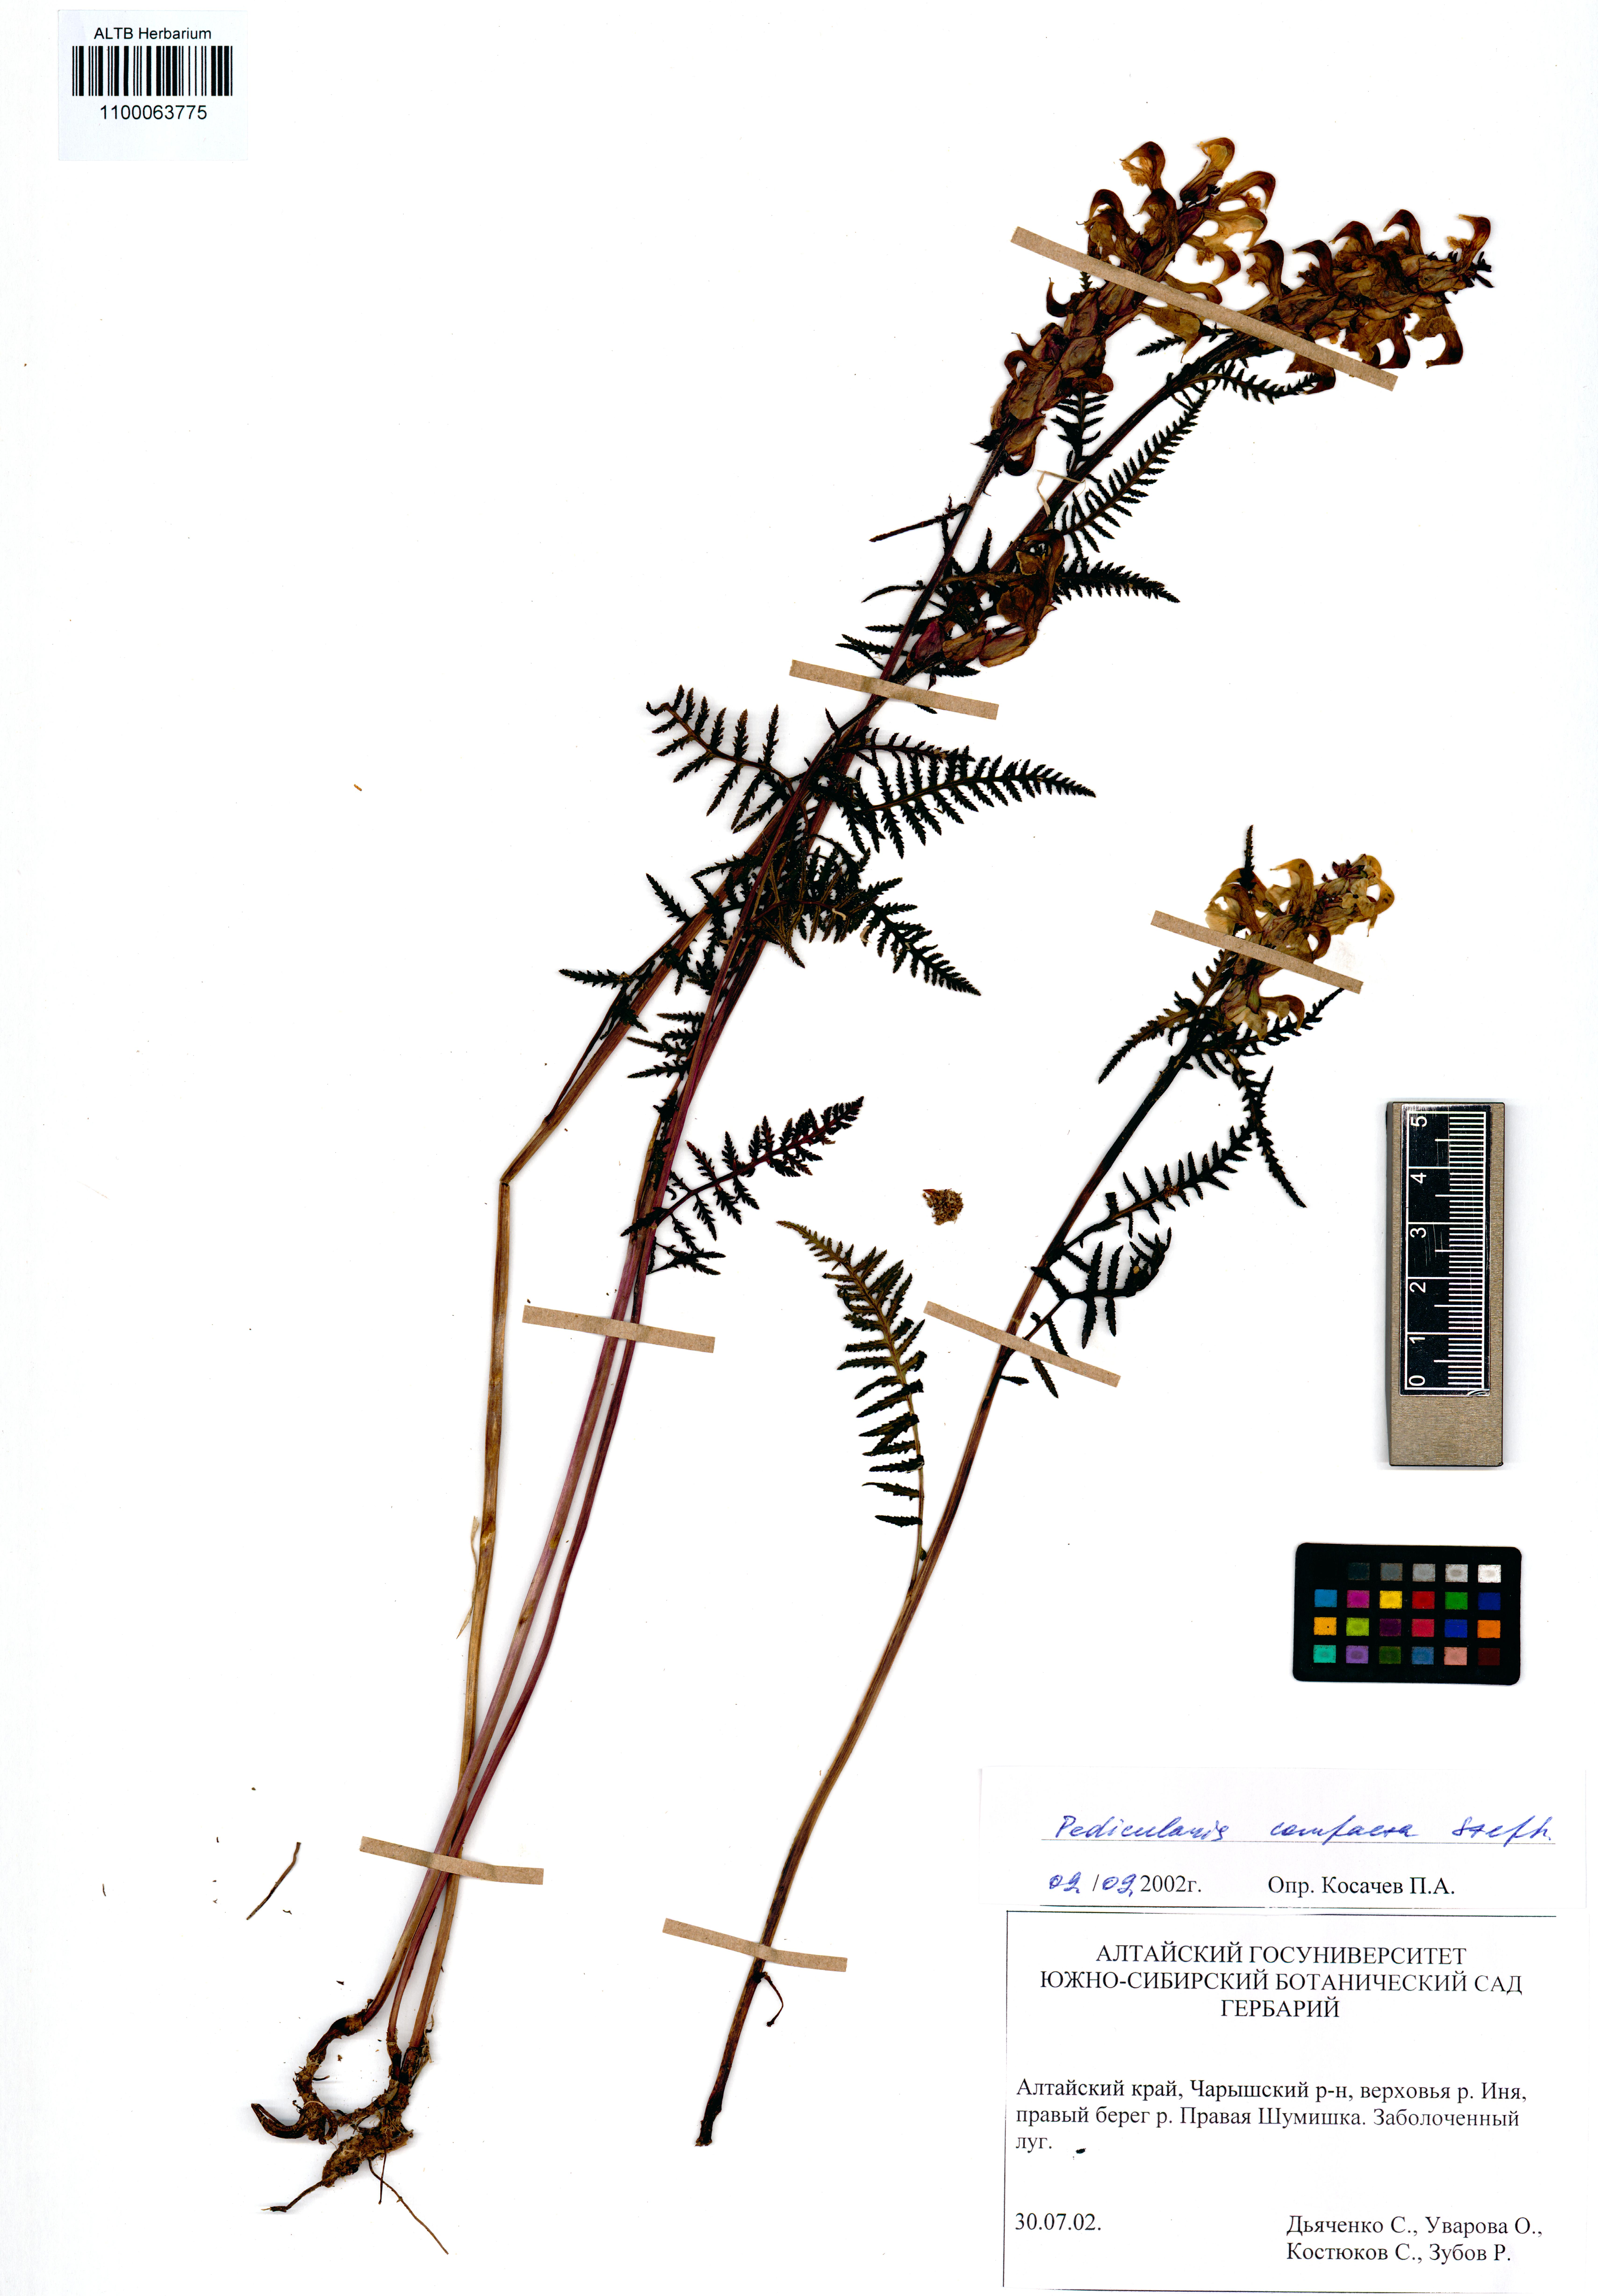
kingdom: Plantae
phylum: Tracheophyta
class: Magnoliopsida
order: Lamiales
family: Orobanchaceae
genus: Pedicularis
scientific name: Pedicularis compacta
